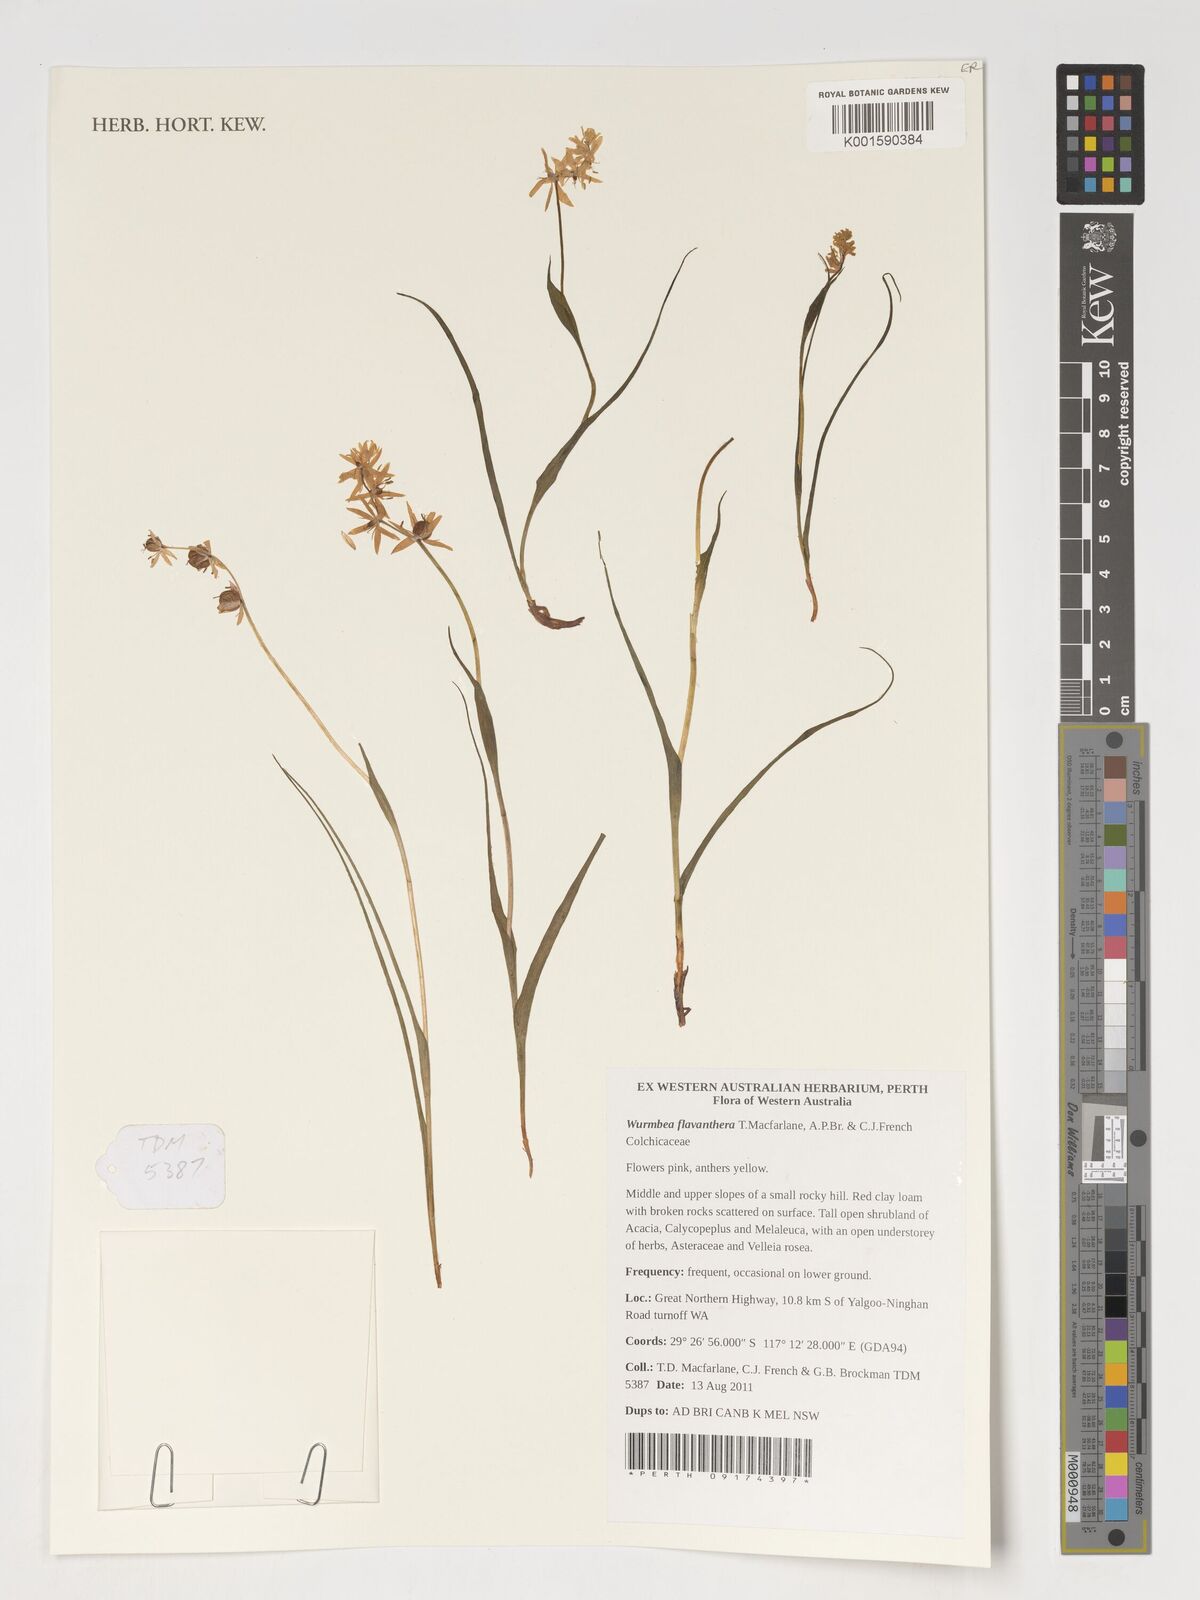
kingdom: Plantae
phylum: Tracheophyta
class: Liliopsida
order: Liliales
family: Colchicaceae
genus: Wurmbea
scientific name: Wurmbea
